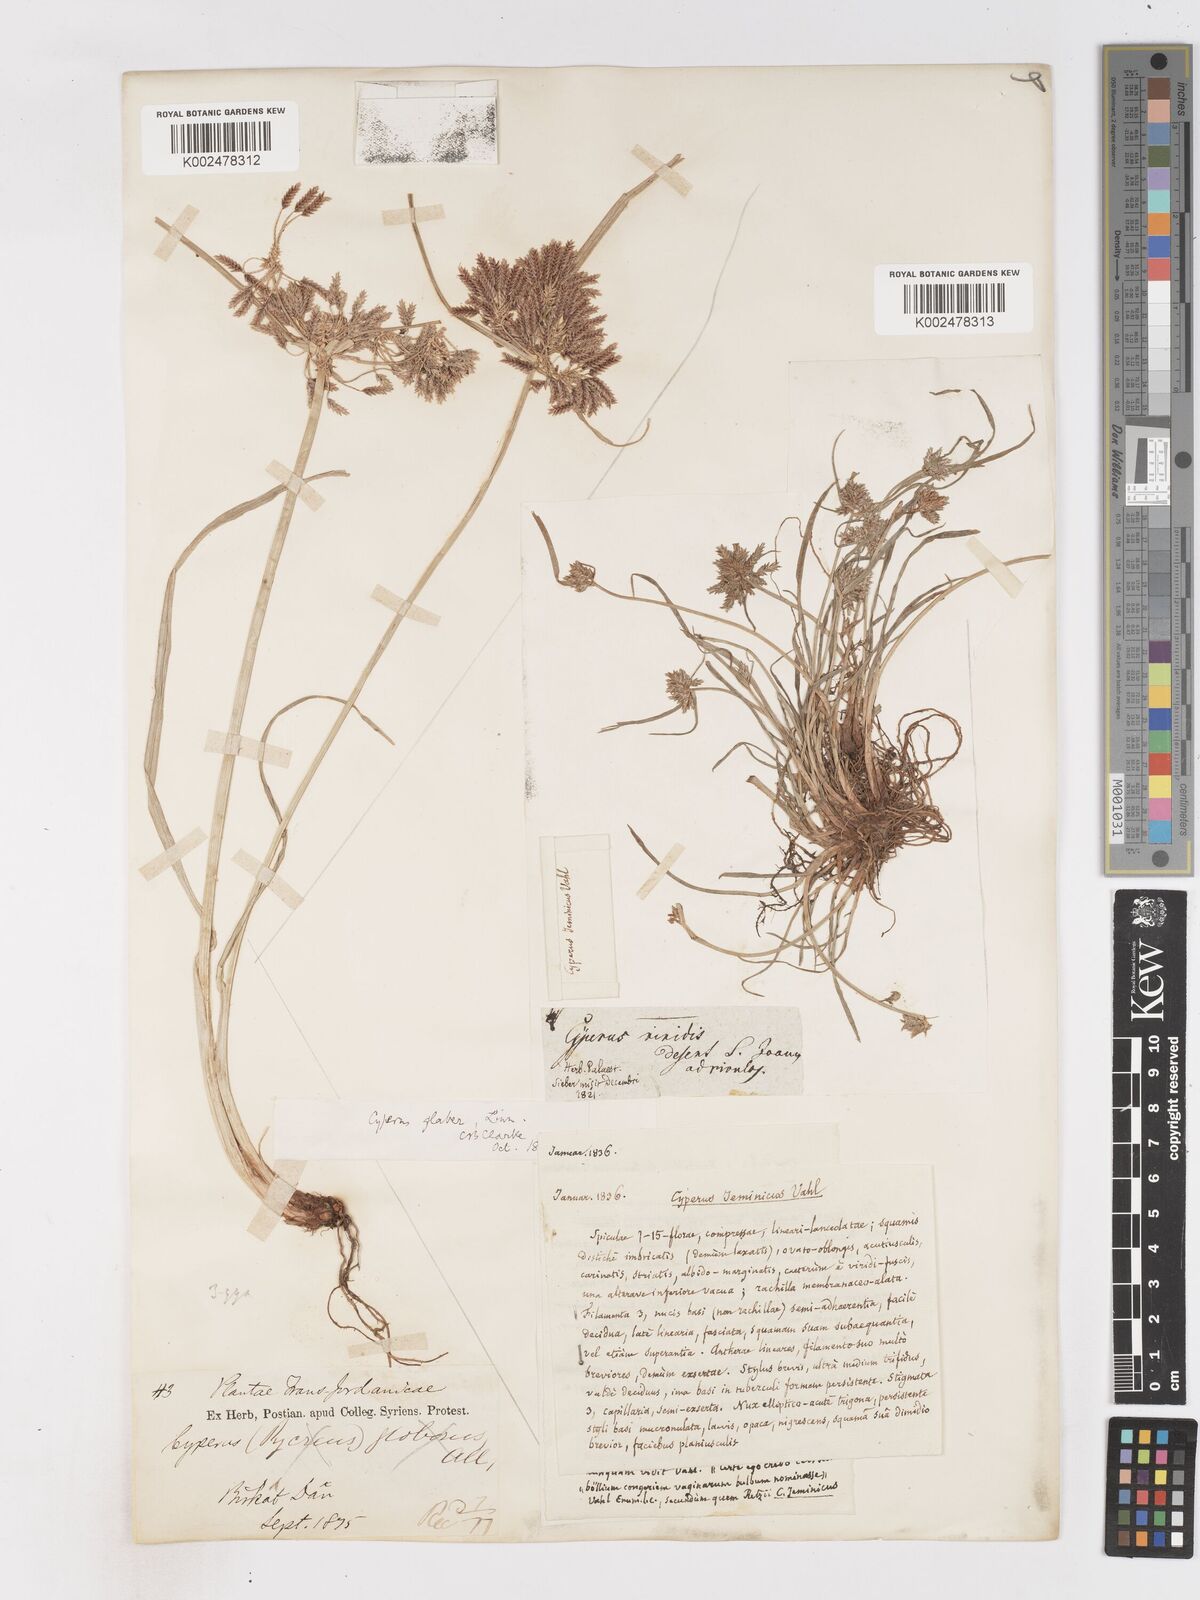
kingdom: Plantae
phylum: Tracheophyta
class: Liliopsida
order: Poales
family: Cyperaceae
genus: Cyperus
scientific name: Cyperus glaber
